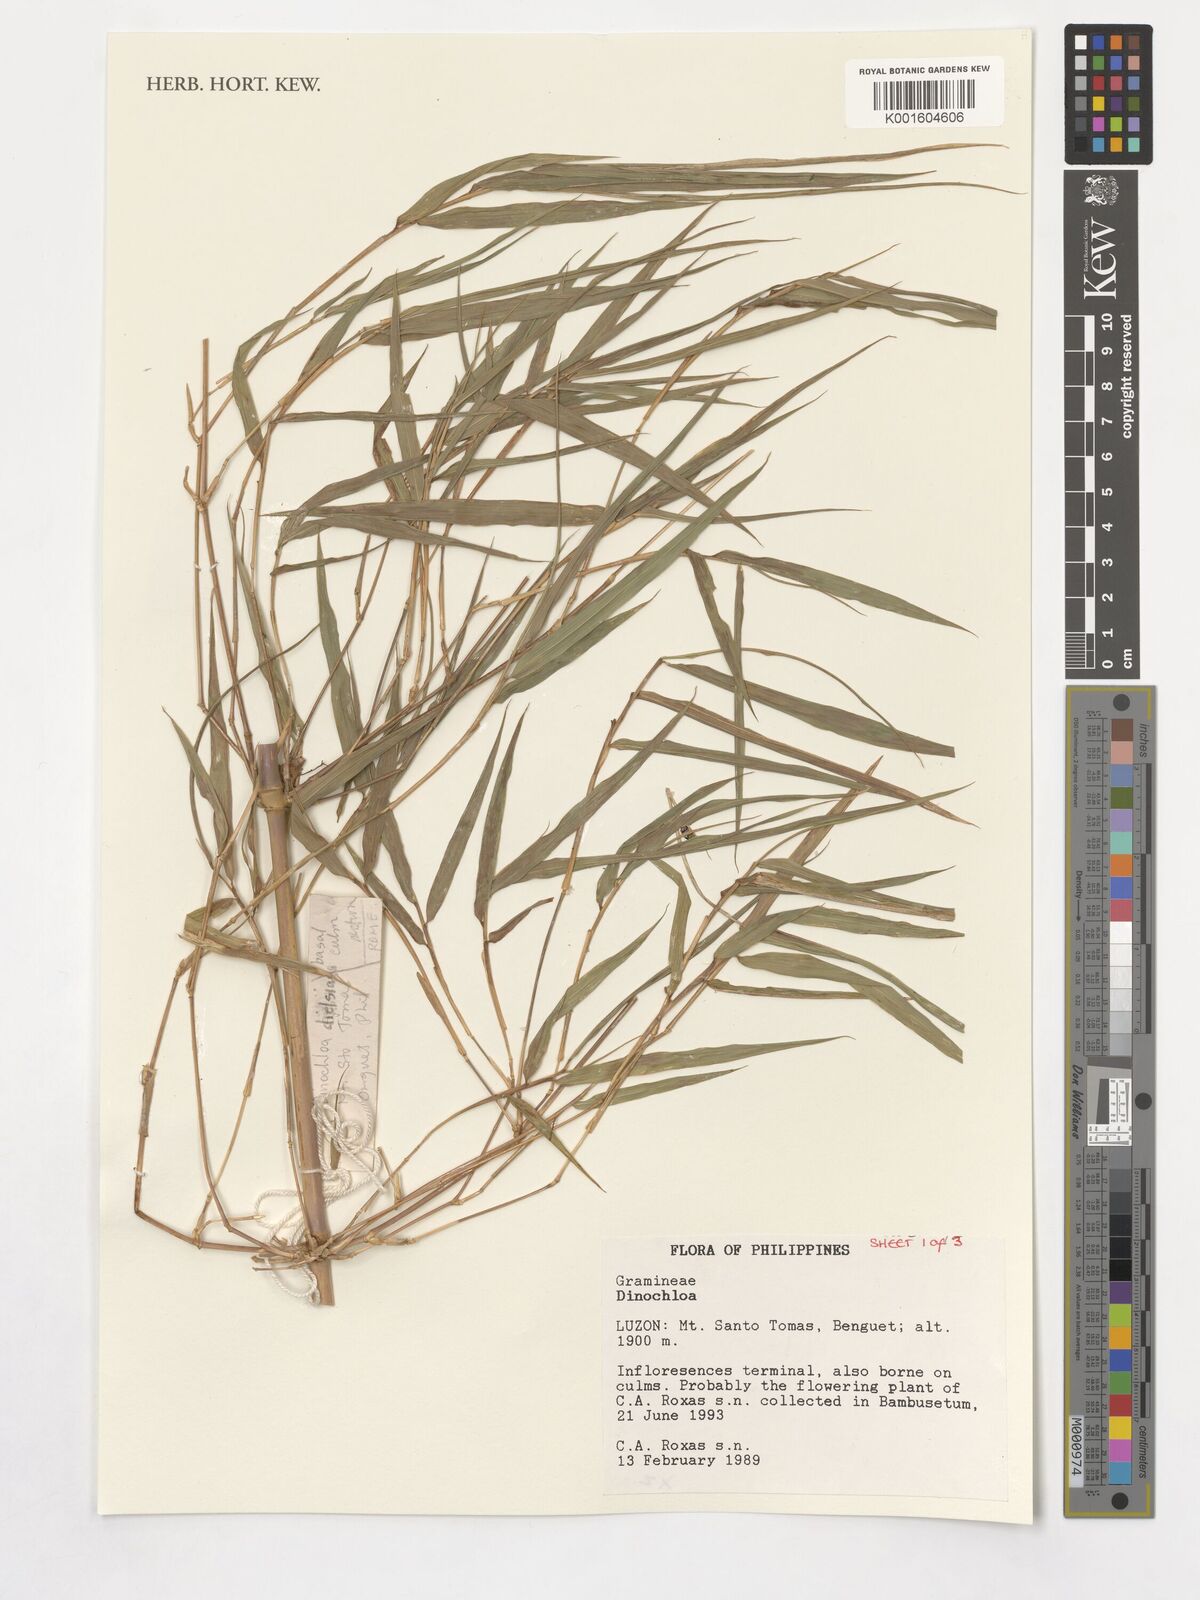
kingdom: Plantae
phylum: Tracheophyta
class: Liliopsida
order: Poales
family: Poaceae
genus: Dinochloa
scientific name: Dinochloa
